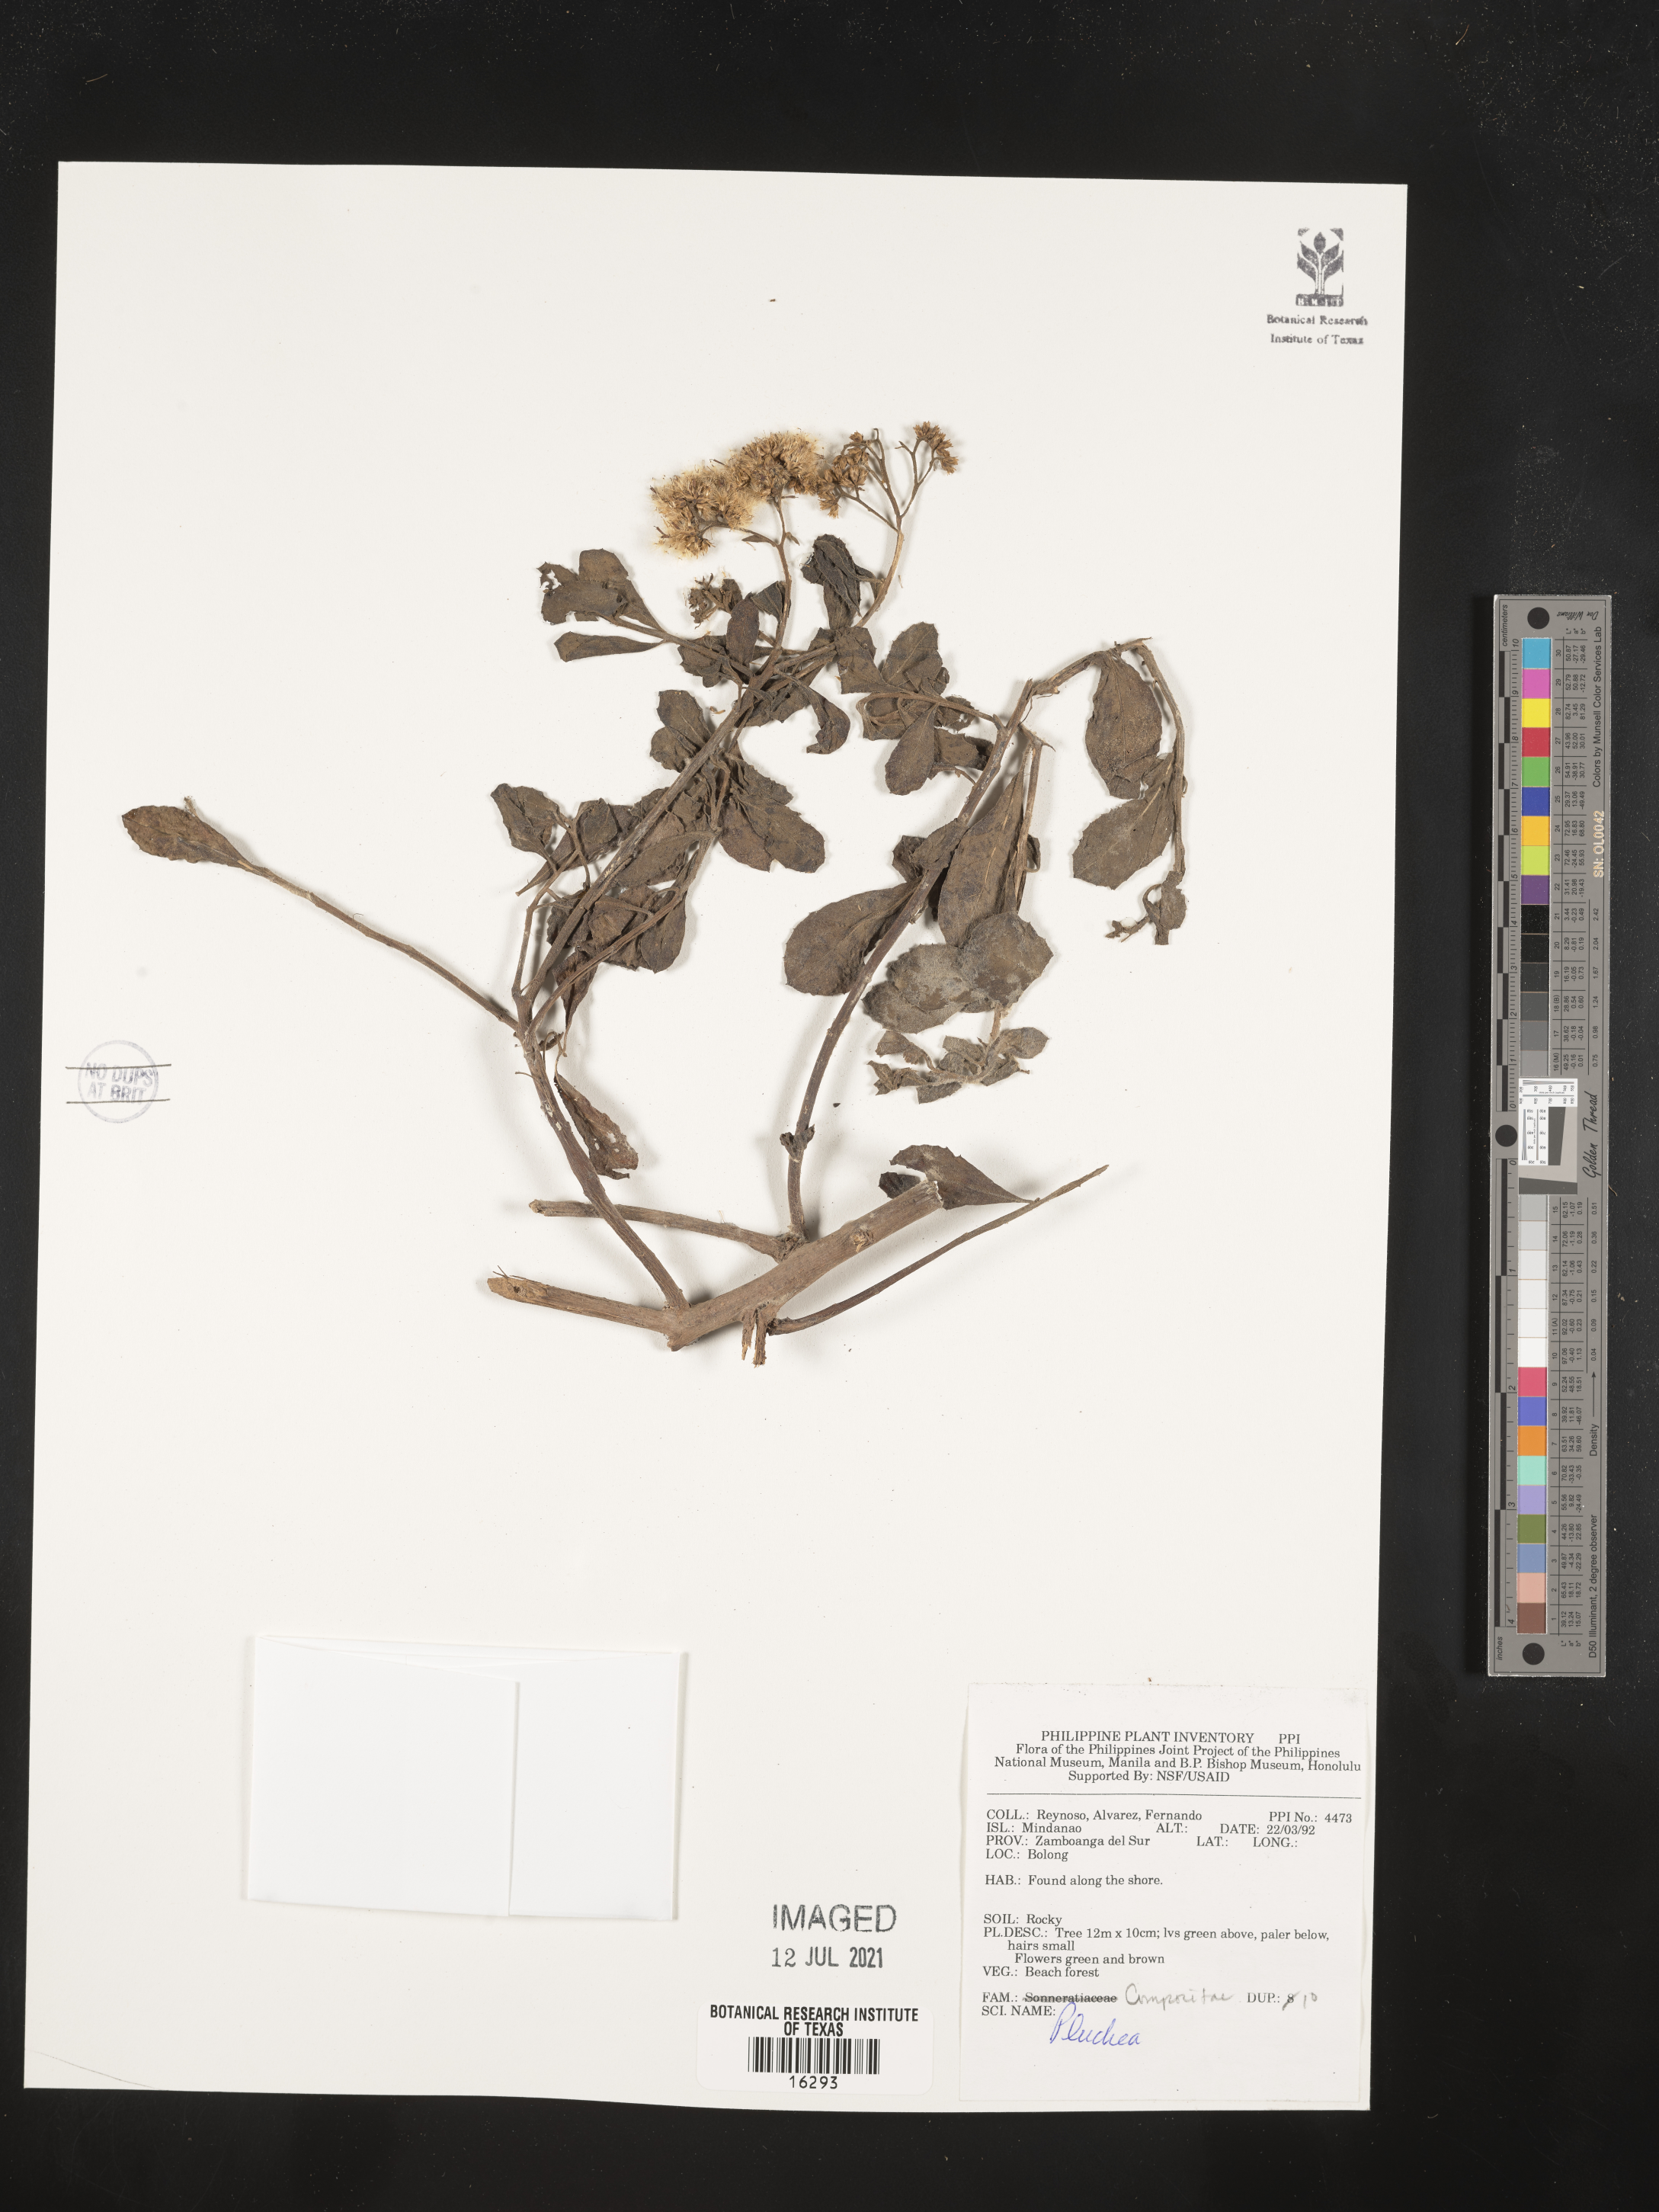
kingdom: Plantae
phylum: Tracheophyta
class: Magnoliopsida
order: Asterales
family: Asteraceae
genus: Pluchea
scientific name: Pluchea
